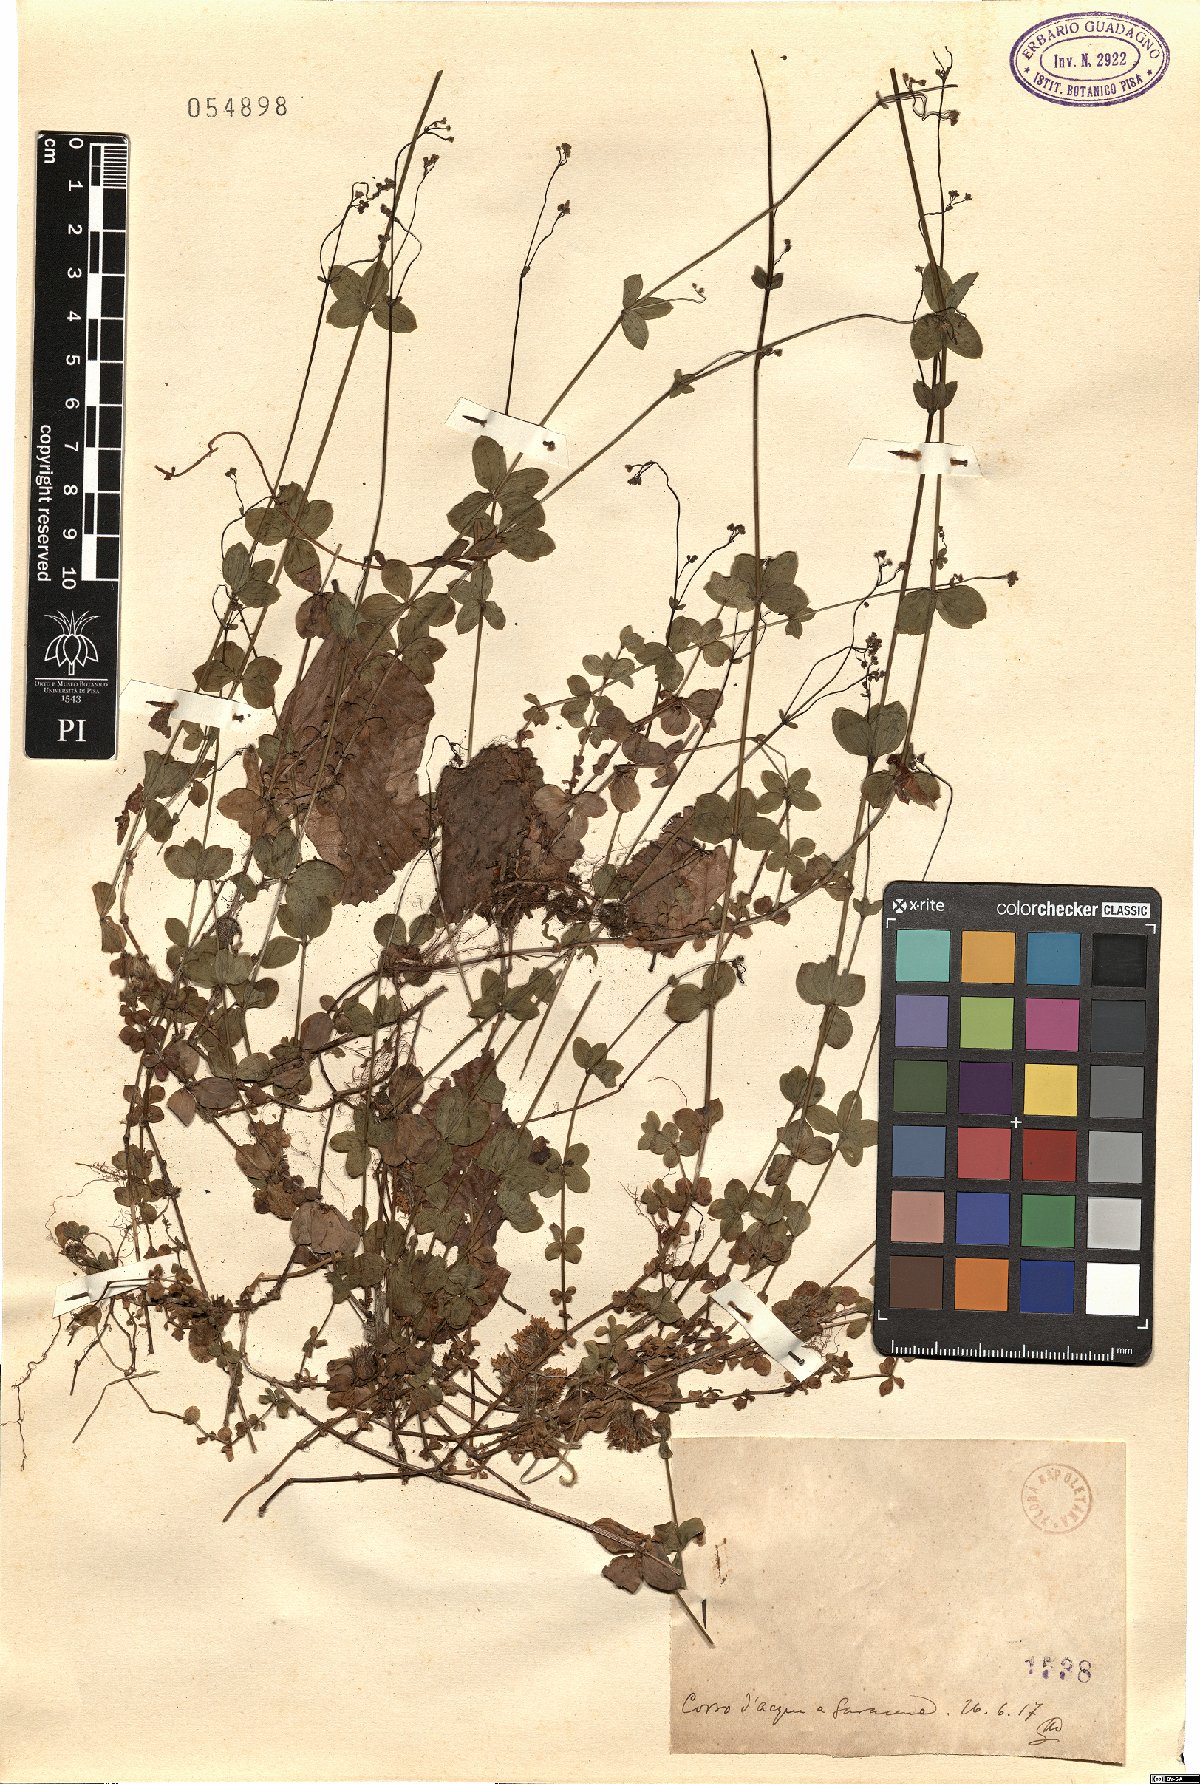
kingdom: Plantae
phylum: Tracheophyta
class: Magnoliopsida
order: Gentianales
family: Rubiaceae
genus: Asperula
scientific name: Asperula
